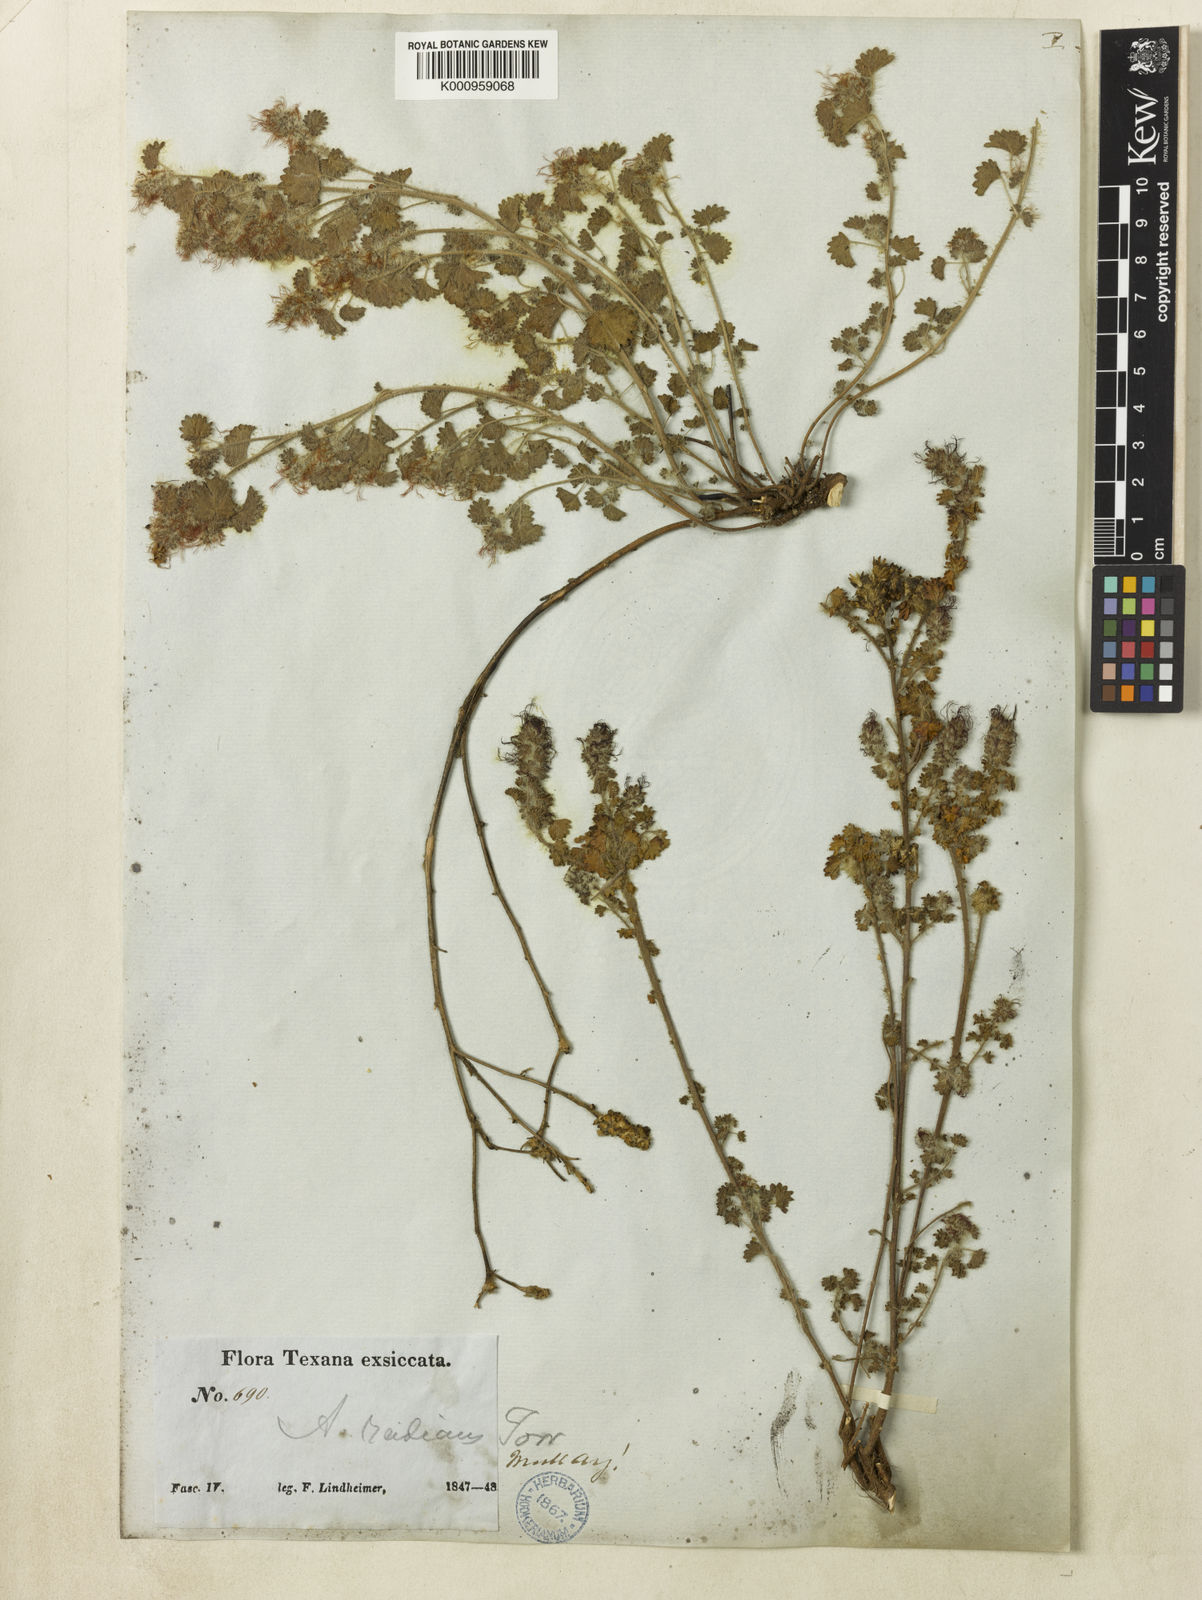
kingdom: Plantae
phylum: Tracheophyta
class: Magnoliopsida
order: Malpighiales
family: Euphorbiaceae
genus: Acalypha
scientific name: Acalypha radians
